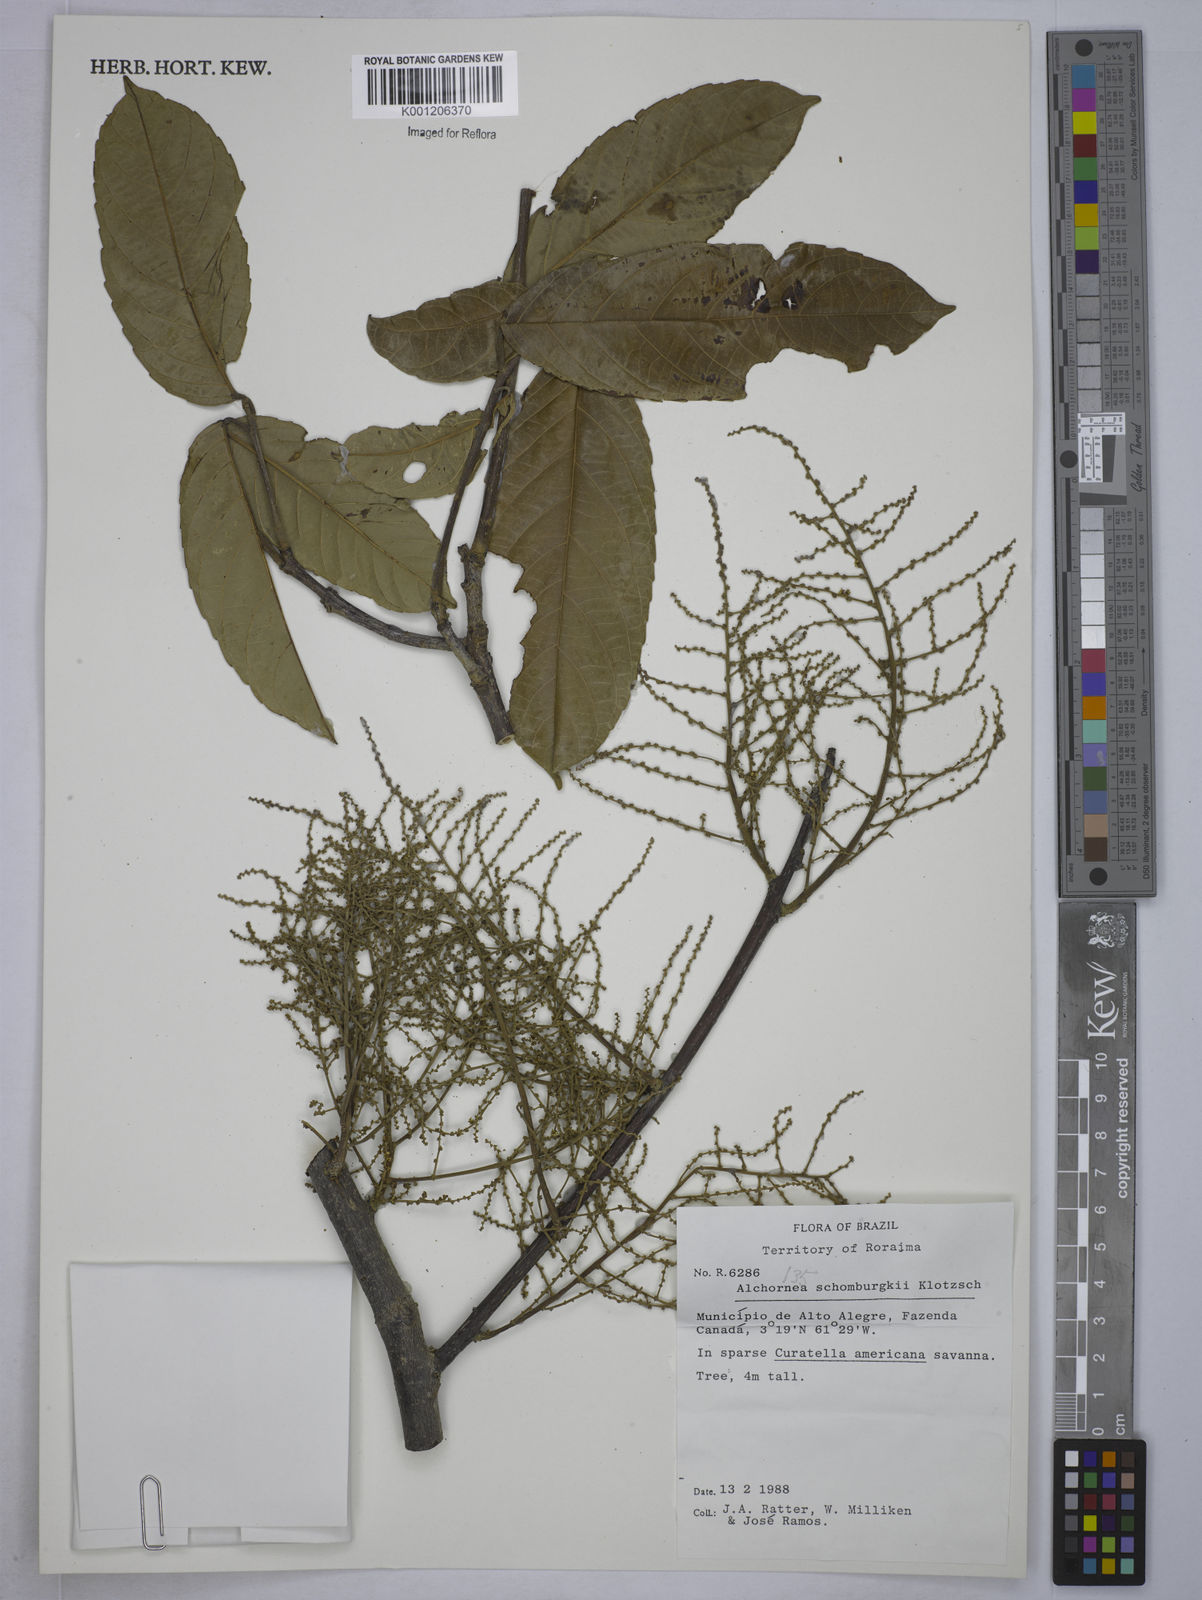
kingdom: Plantae
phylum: Tracheophyta
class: Magnoliopsida
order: Malpighiales
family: Euphorbiaceae
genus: Alchornea
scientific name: Alchornea discolor
